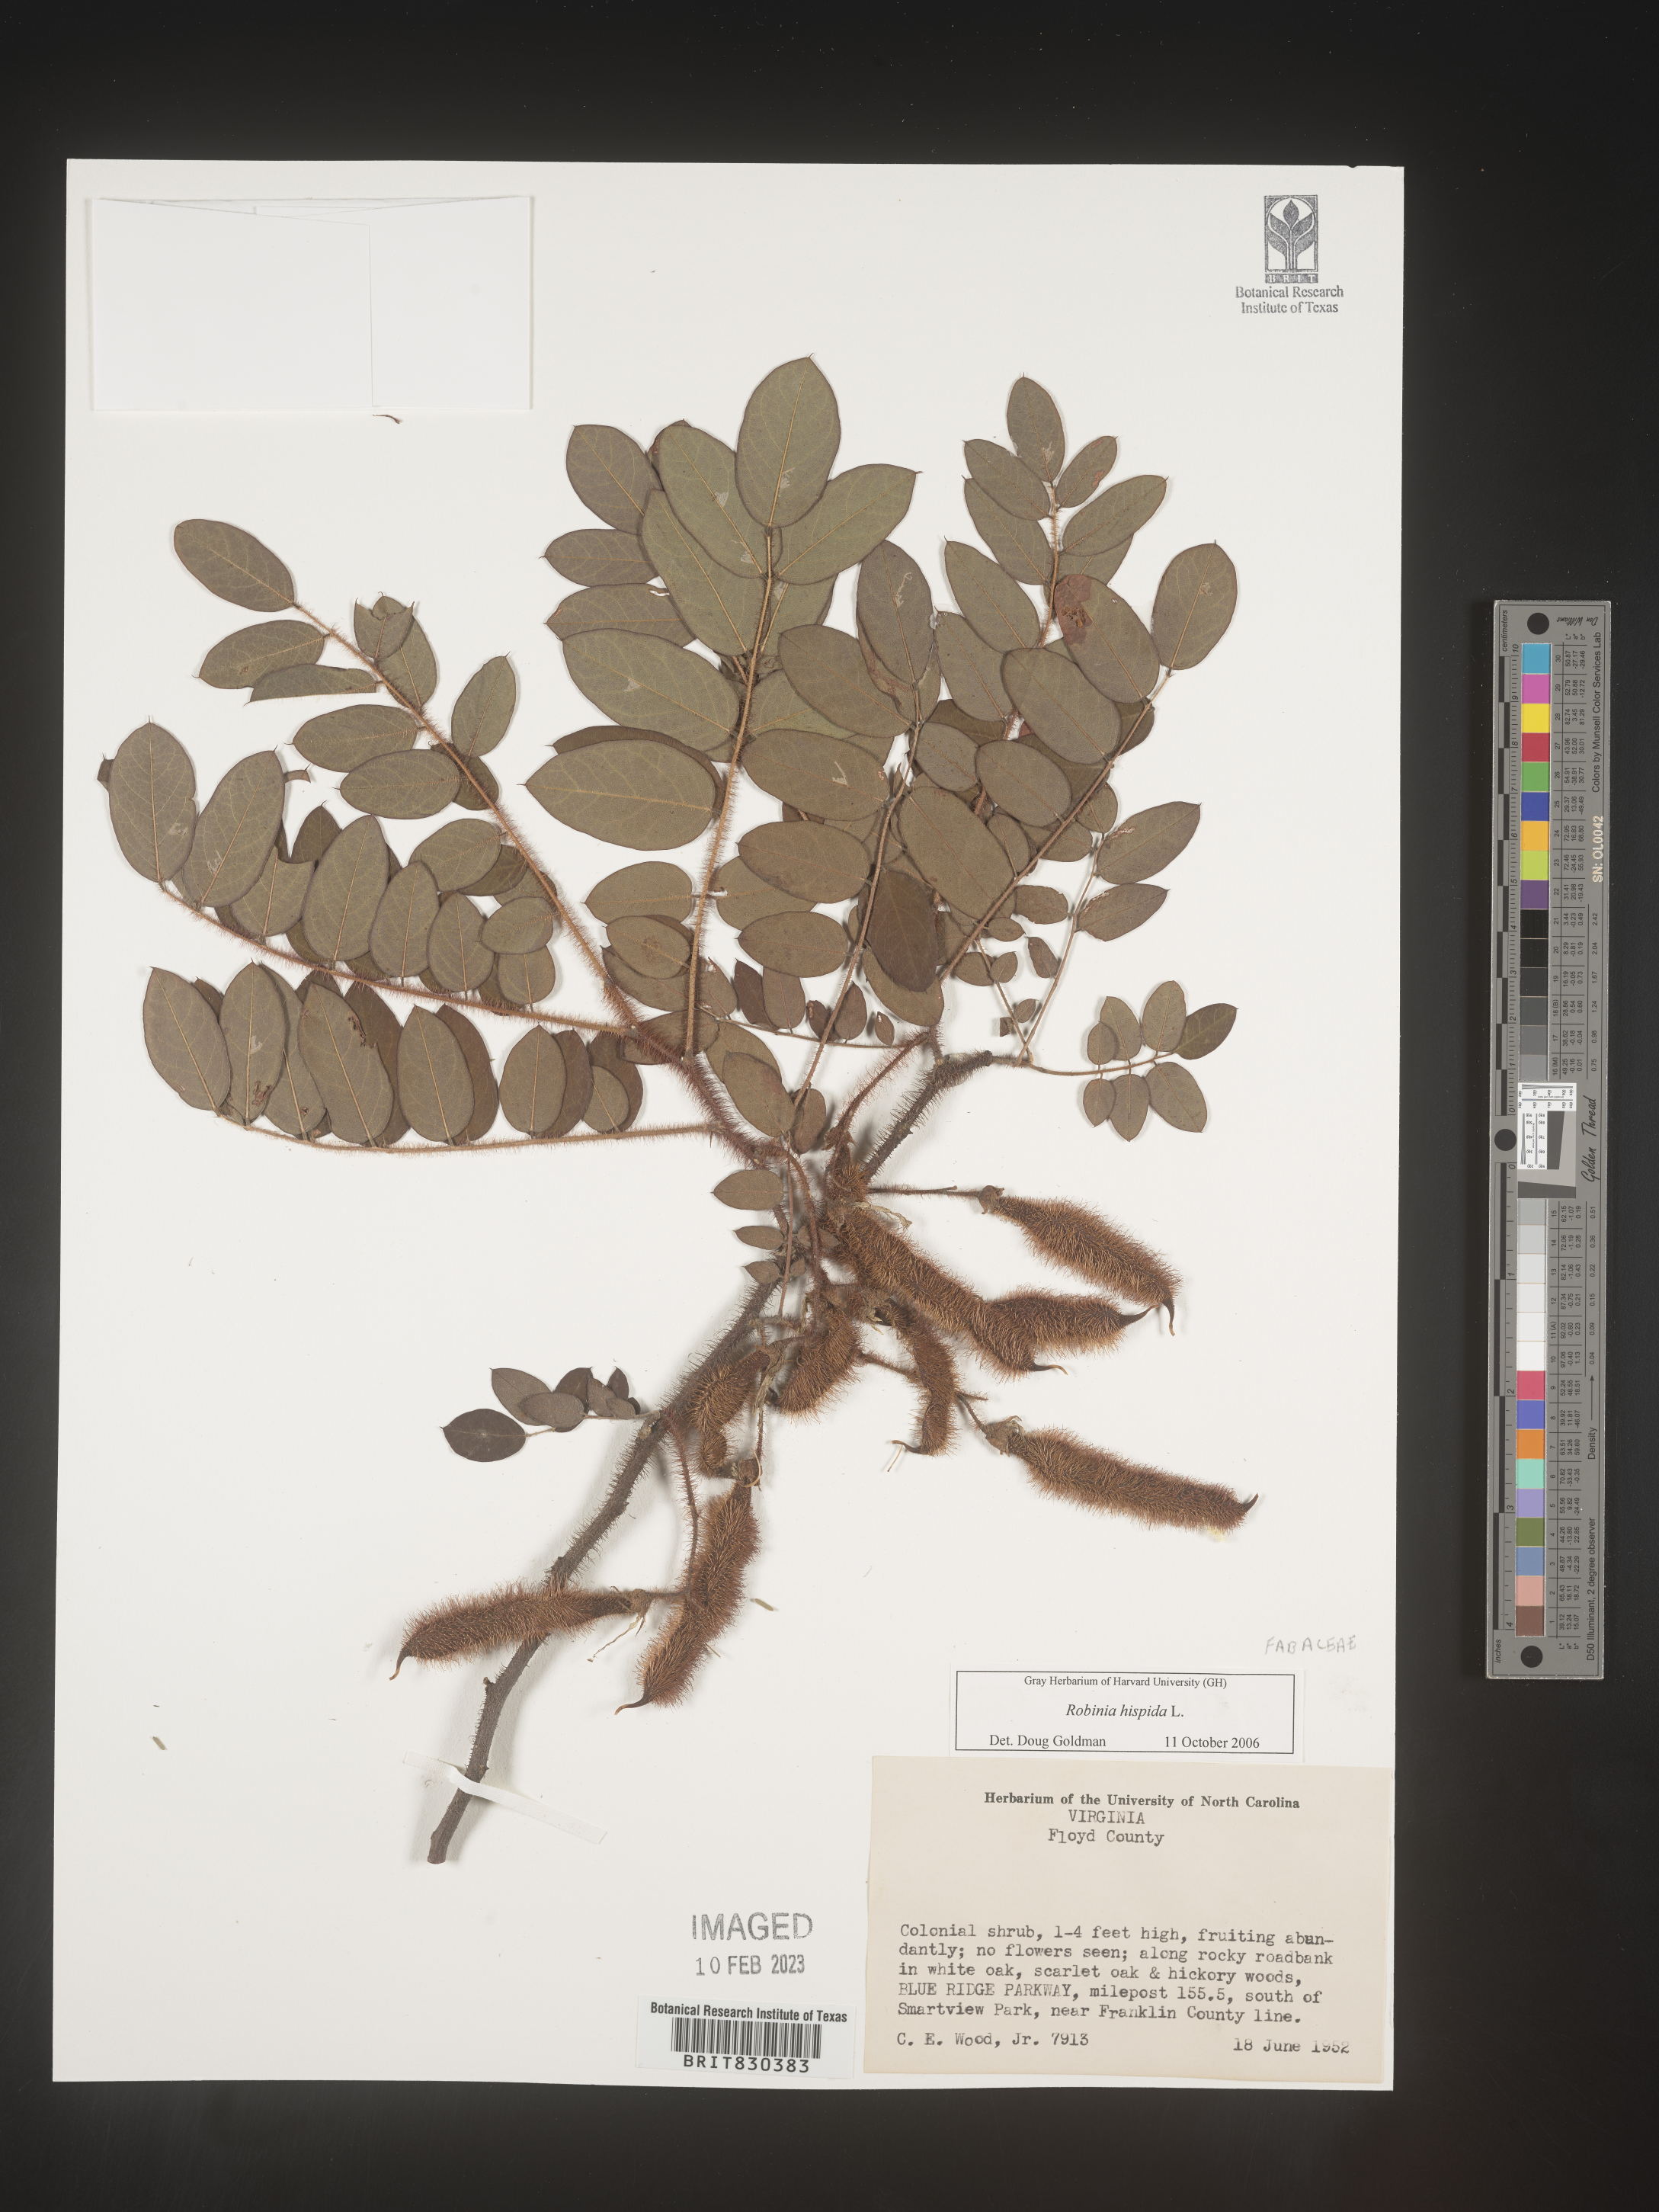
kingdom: Plantae
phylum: Tracheophyta
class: Magnoliopsida
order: Fabales
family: Fabaceae
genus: Robinia
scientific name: Robinia hispida
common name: Bristly locust
